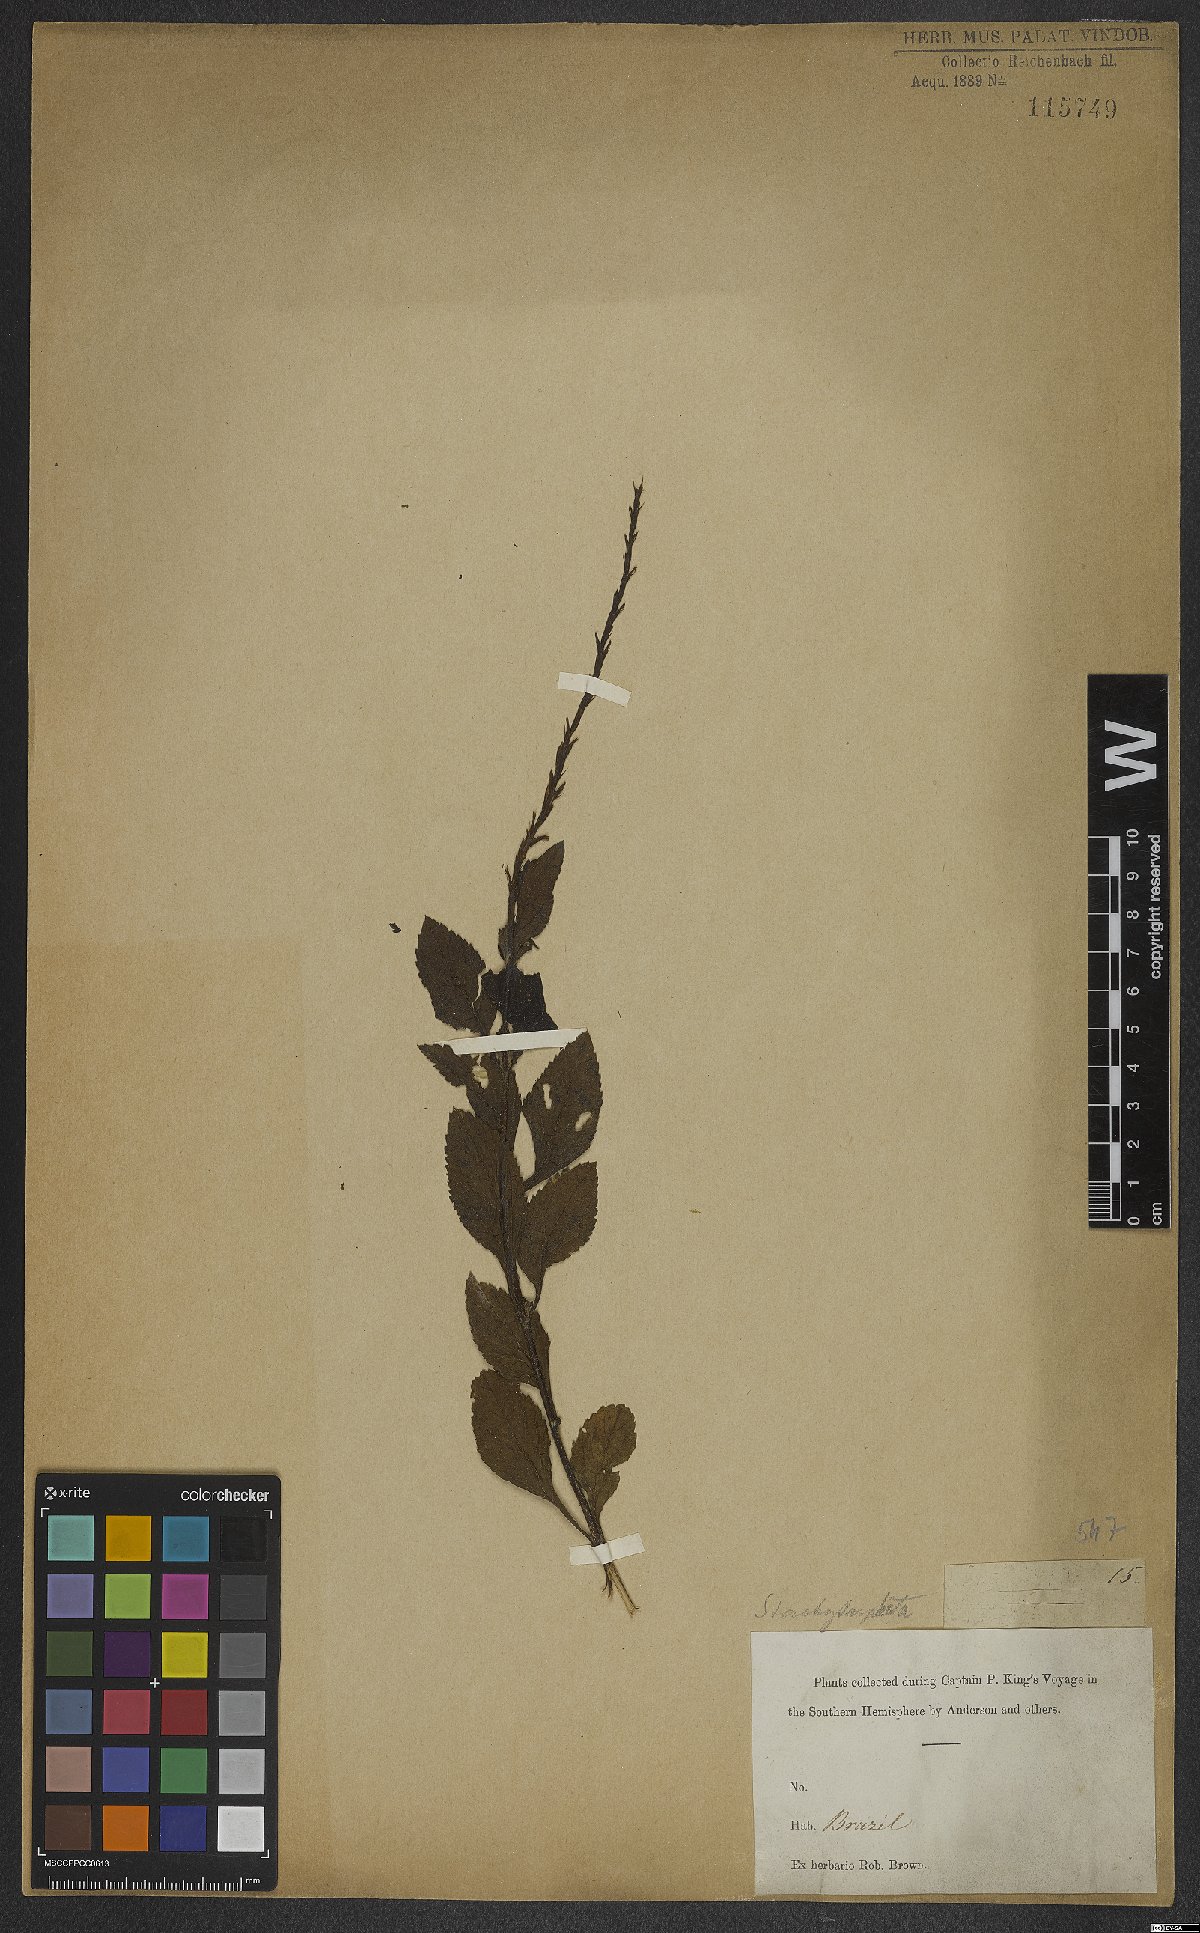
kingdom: Plantae
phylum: Tracheophyta
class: Magnoliopsida
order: Lamiales
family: Verbenaceae
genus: Stachytarpheta
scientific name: Stachytarpheta
